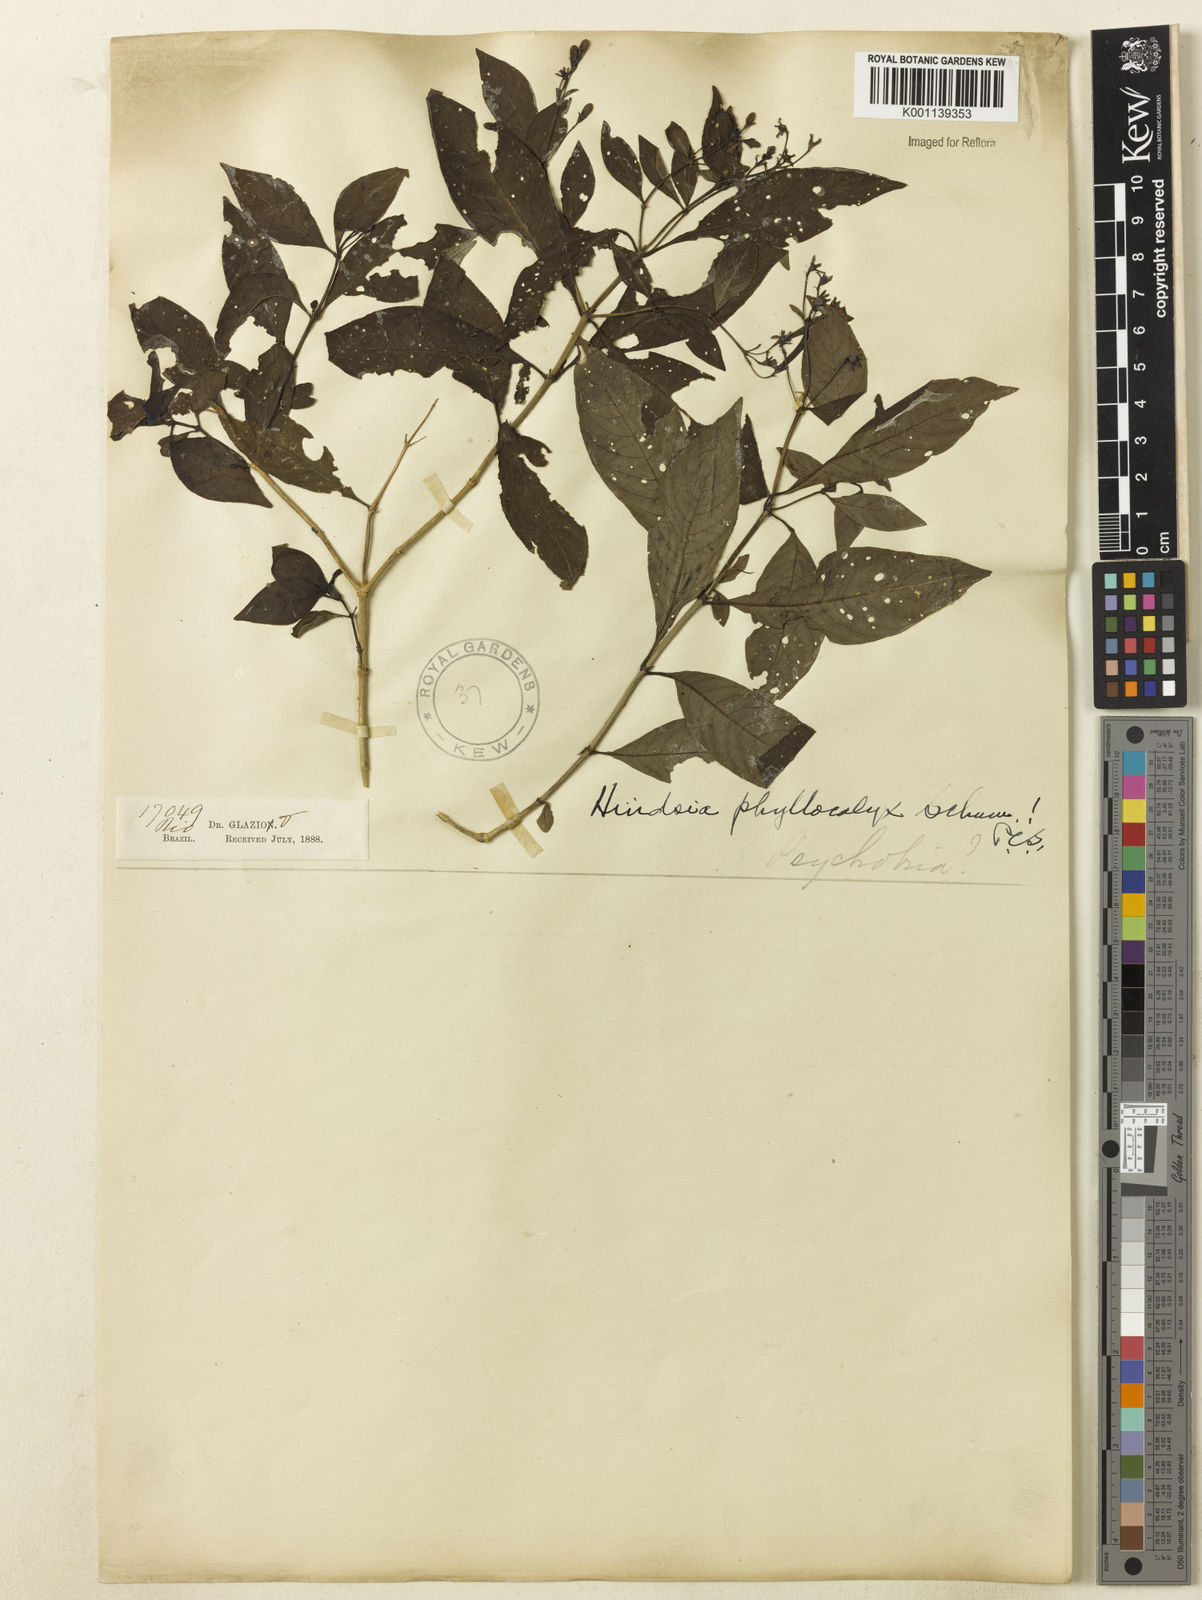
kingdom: Plantae
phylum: Tracheophyta
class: Magnoliopsida
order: Gentianales
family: Rubiaceae
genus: Hindsia
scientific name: Hindsia phyllocalyx
